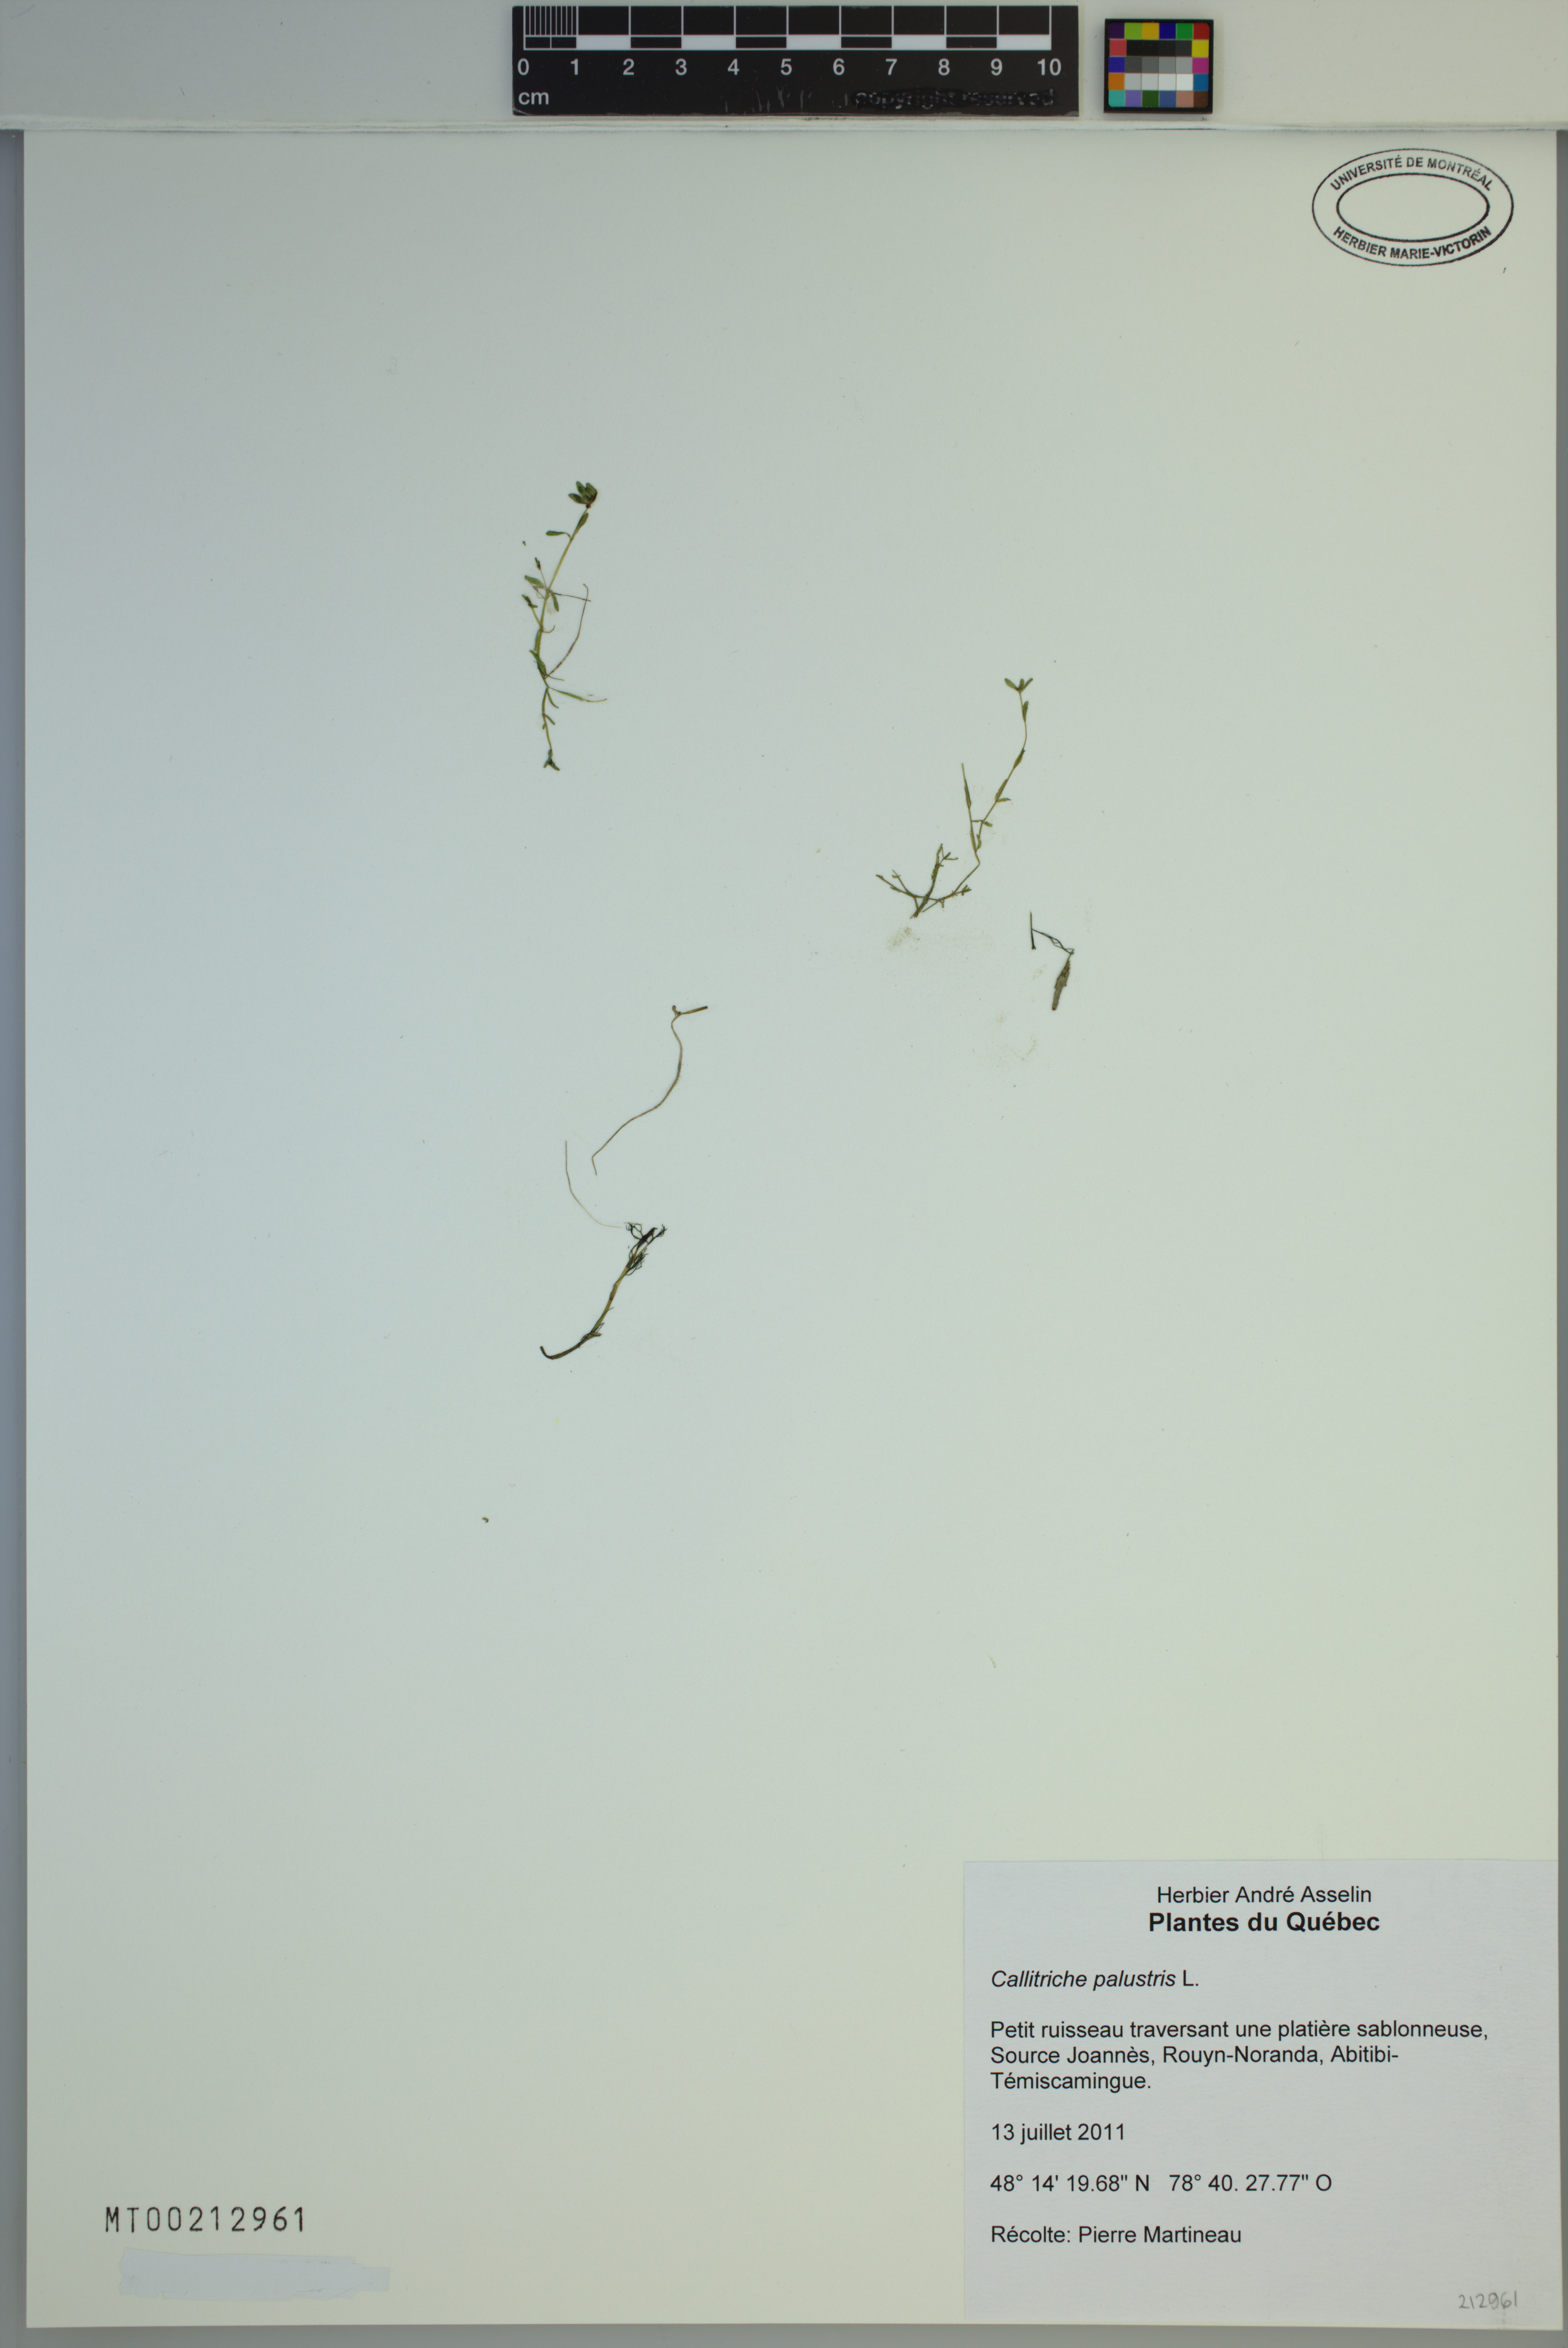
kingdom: Plantae
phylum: Tracheophyta
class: Magnoliopsida
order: Lamiales
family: Plantaginaceae
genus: Callitriche
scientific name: Callitriche palustris
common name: Spring water-starwort
